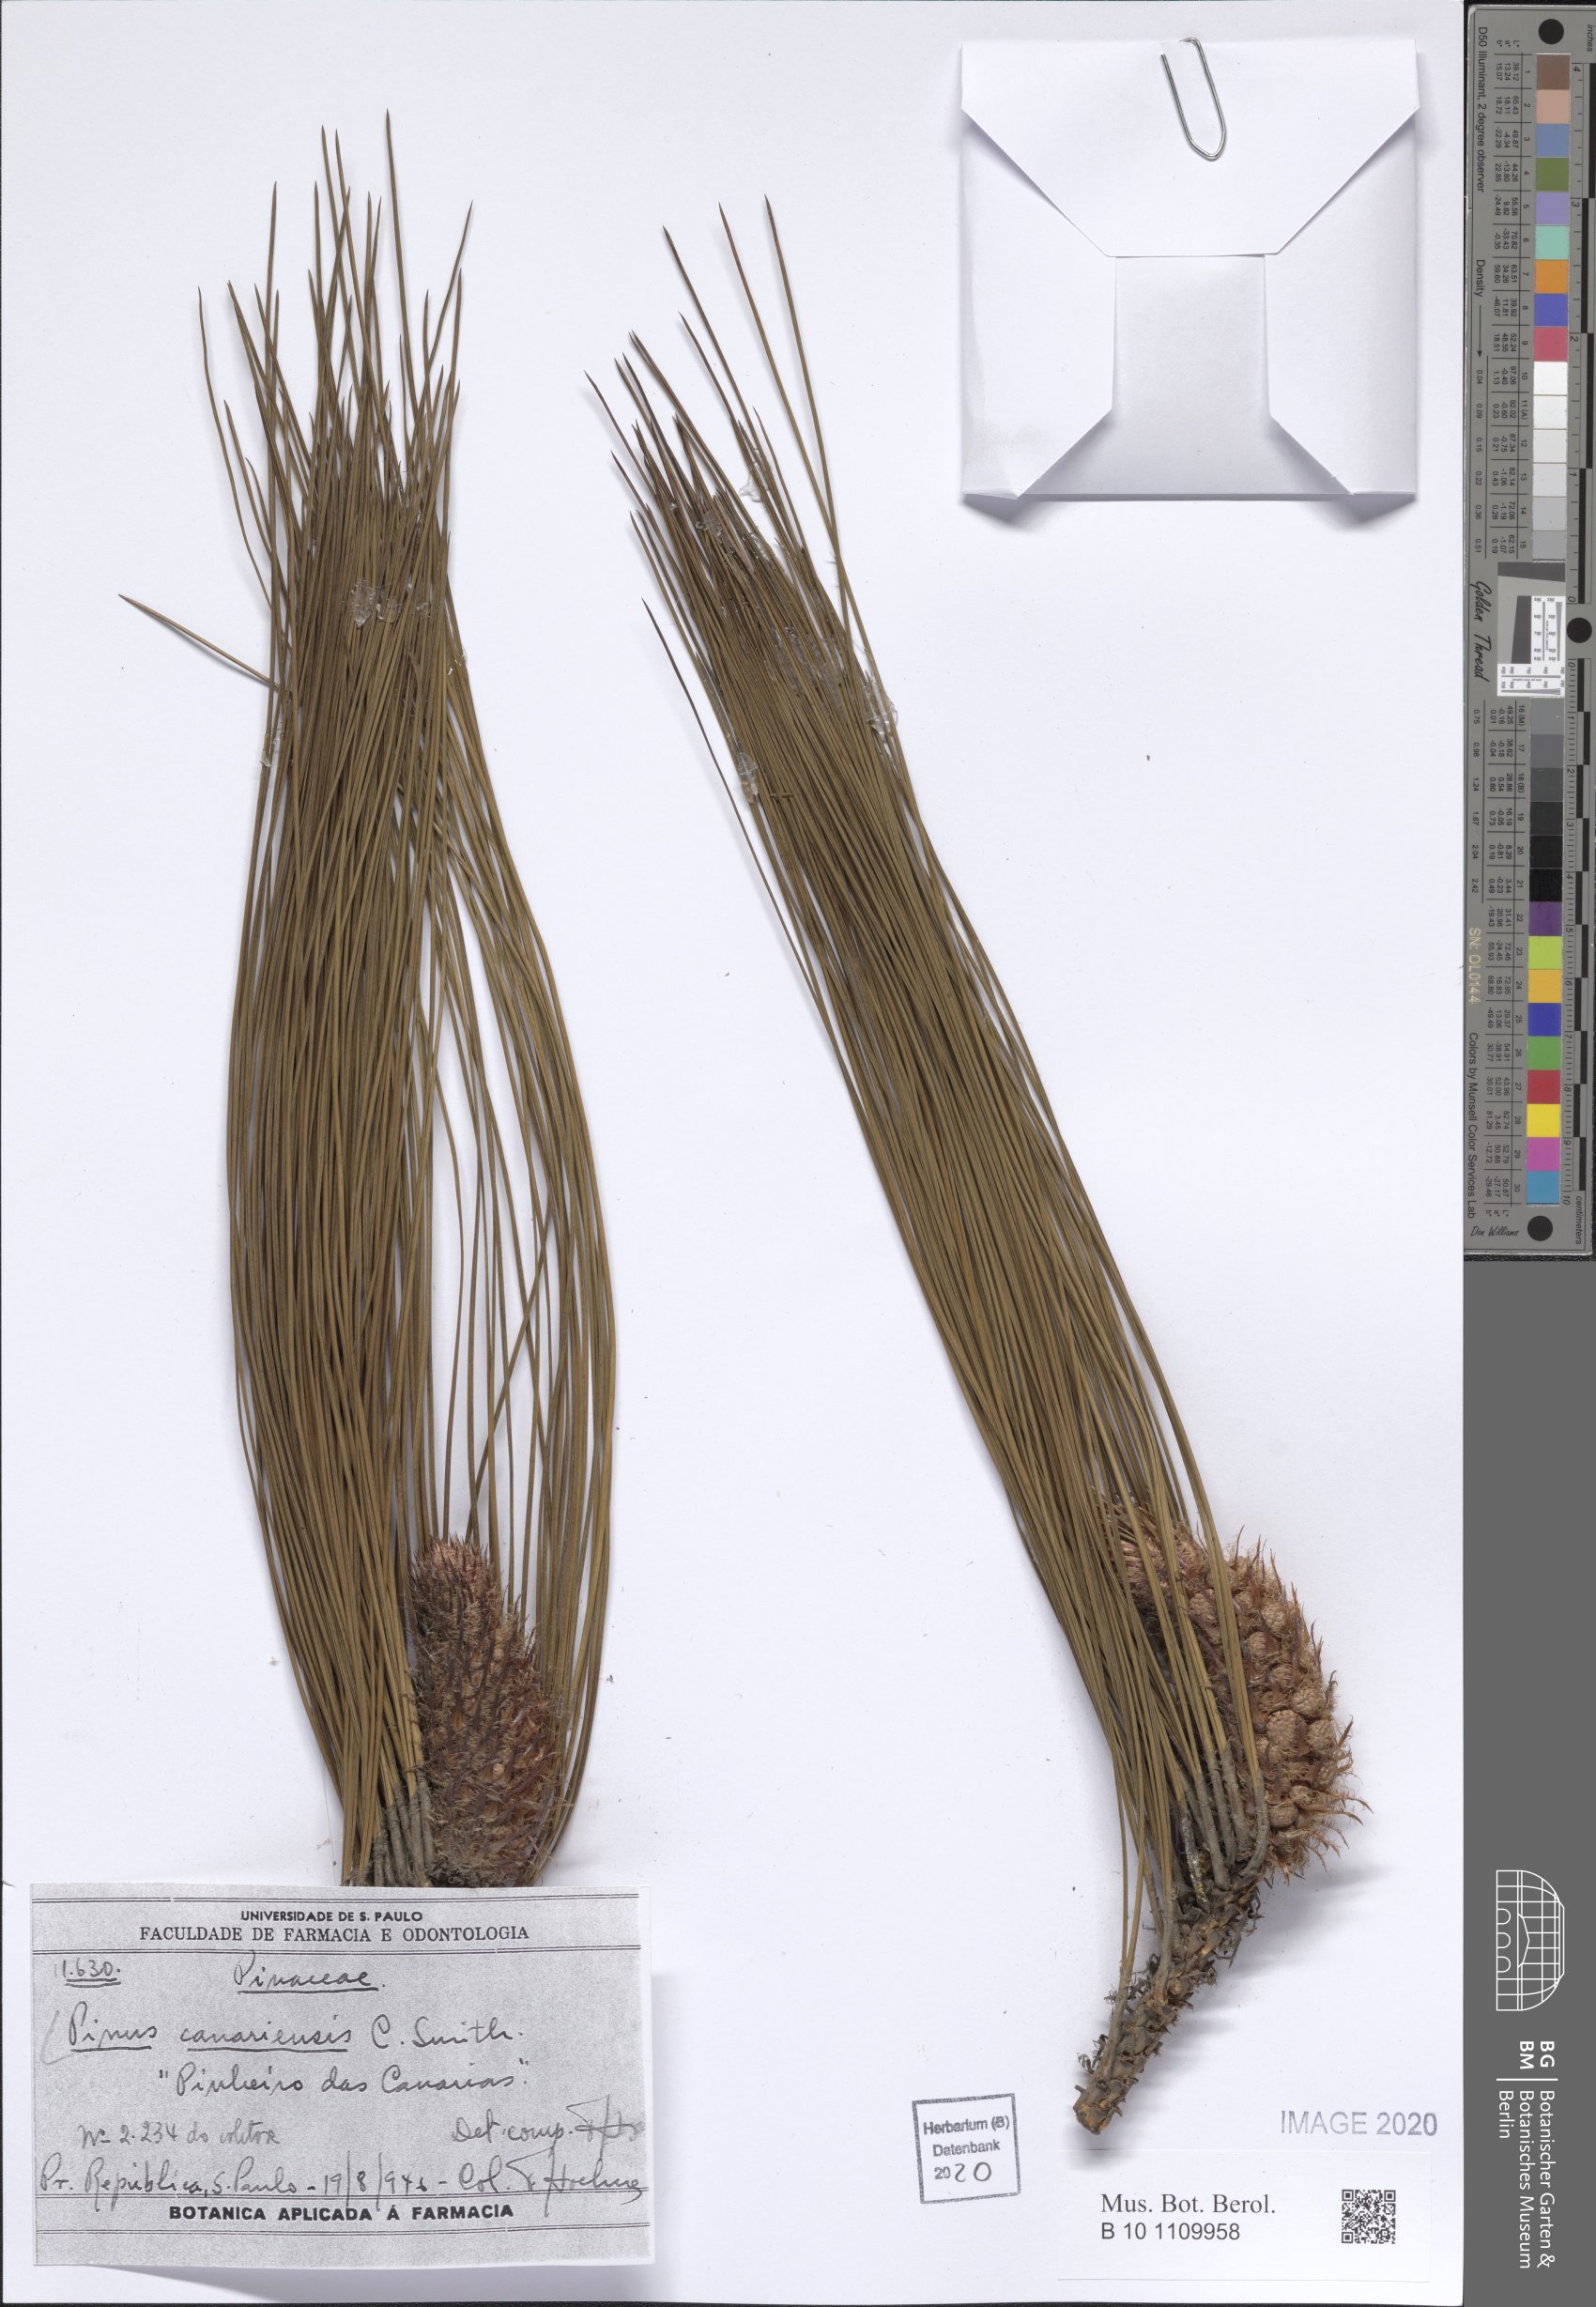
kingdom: Plantae
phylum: Tracheophyta
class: Pinopsida
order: Pinales
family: Pinaceae
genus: Pinus
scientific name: Pinus canariensis
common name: Canary islands pine
